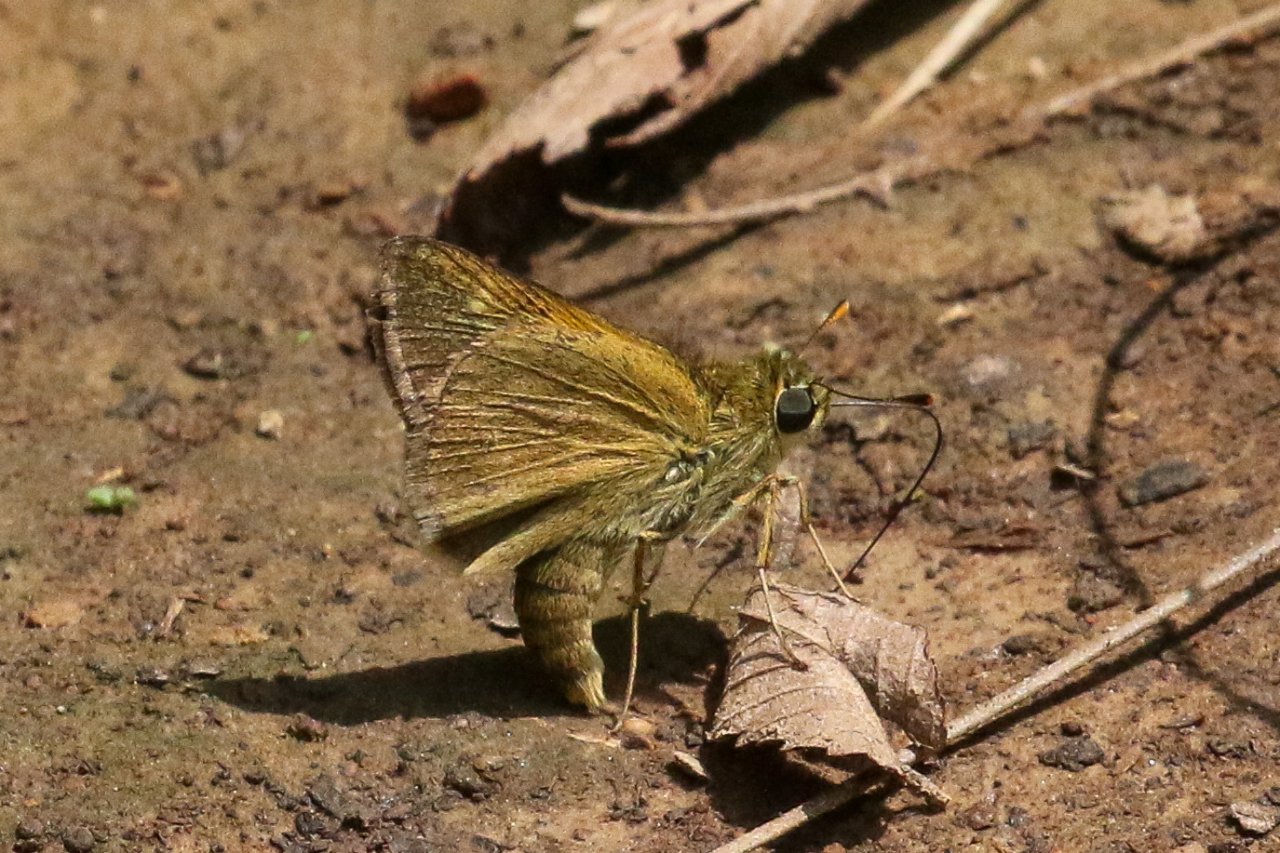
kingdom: Animalia
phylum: Arthropoda
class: Insecta
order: Lepidoptera
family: Hesperiidae
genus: Polites
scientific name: Polites
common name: Crossline Skipper
